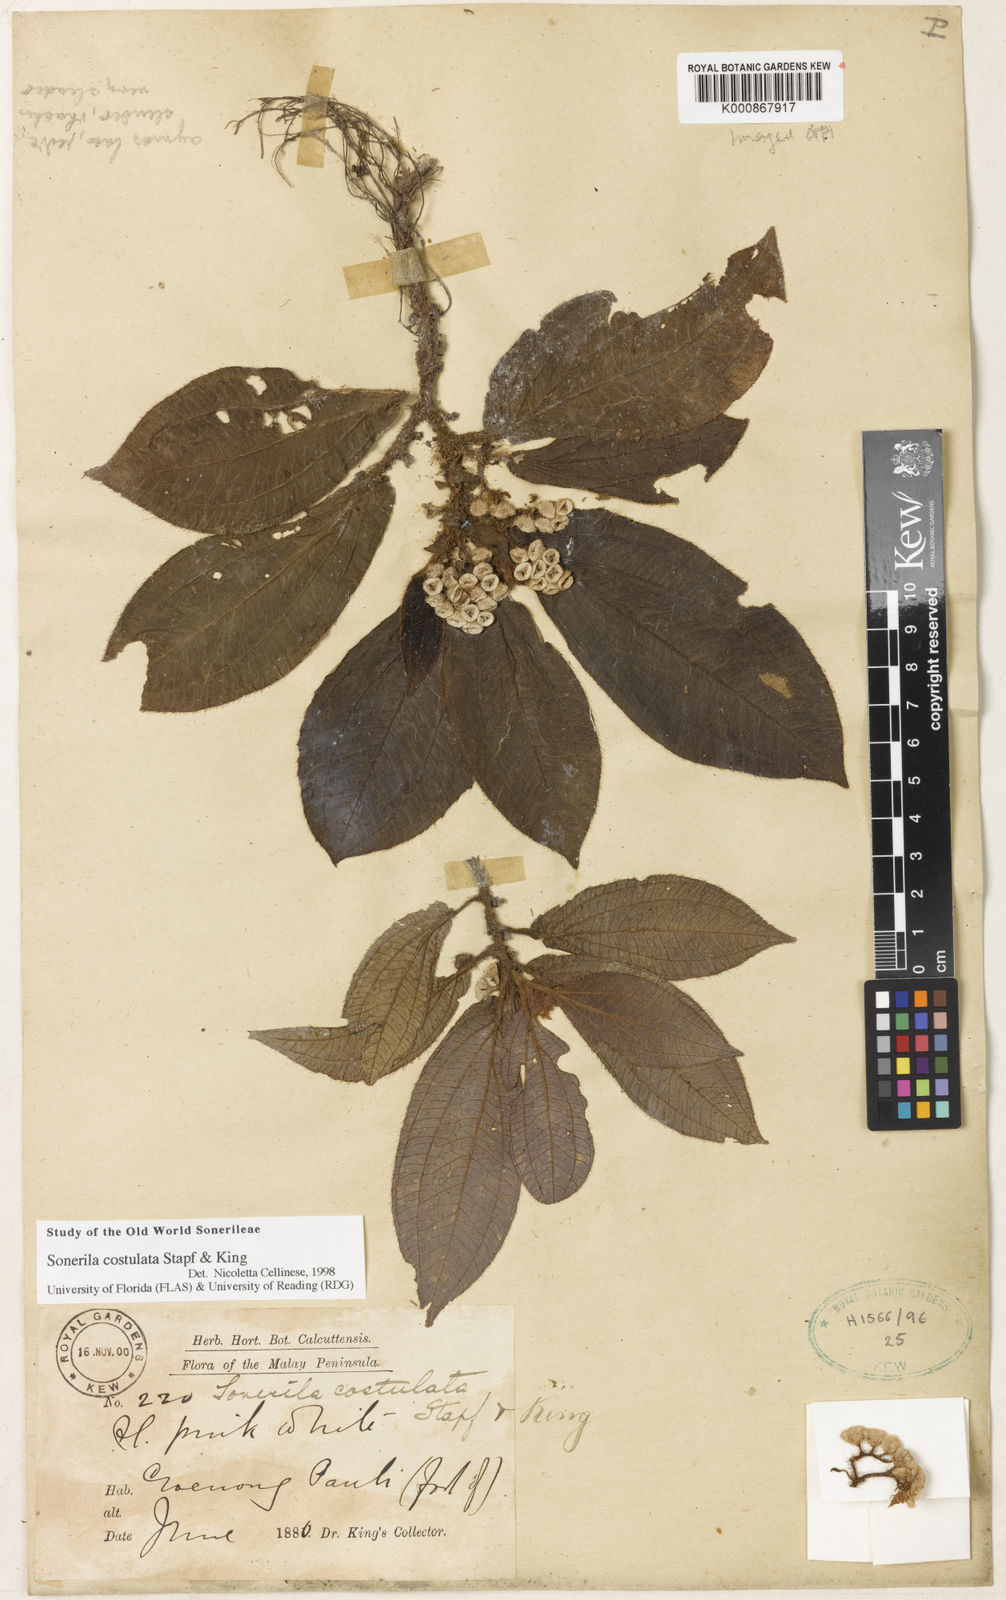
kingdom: Plantae
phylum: Tracheophyta
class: Magnoliopsida
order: Myrtales
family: Melastomataceae
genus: Sonerila
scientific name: Sonerila costulata
